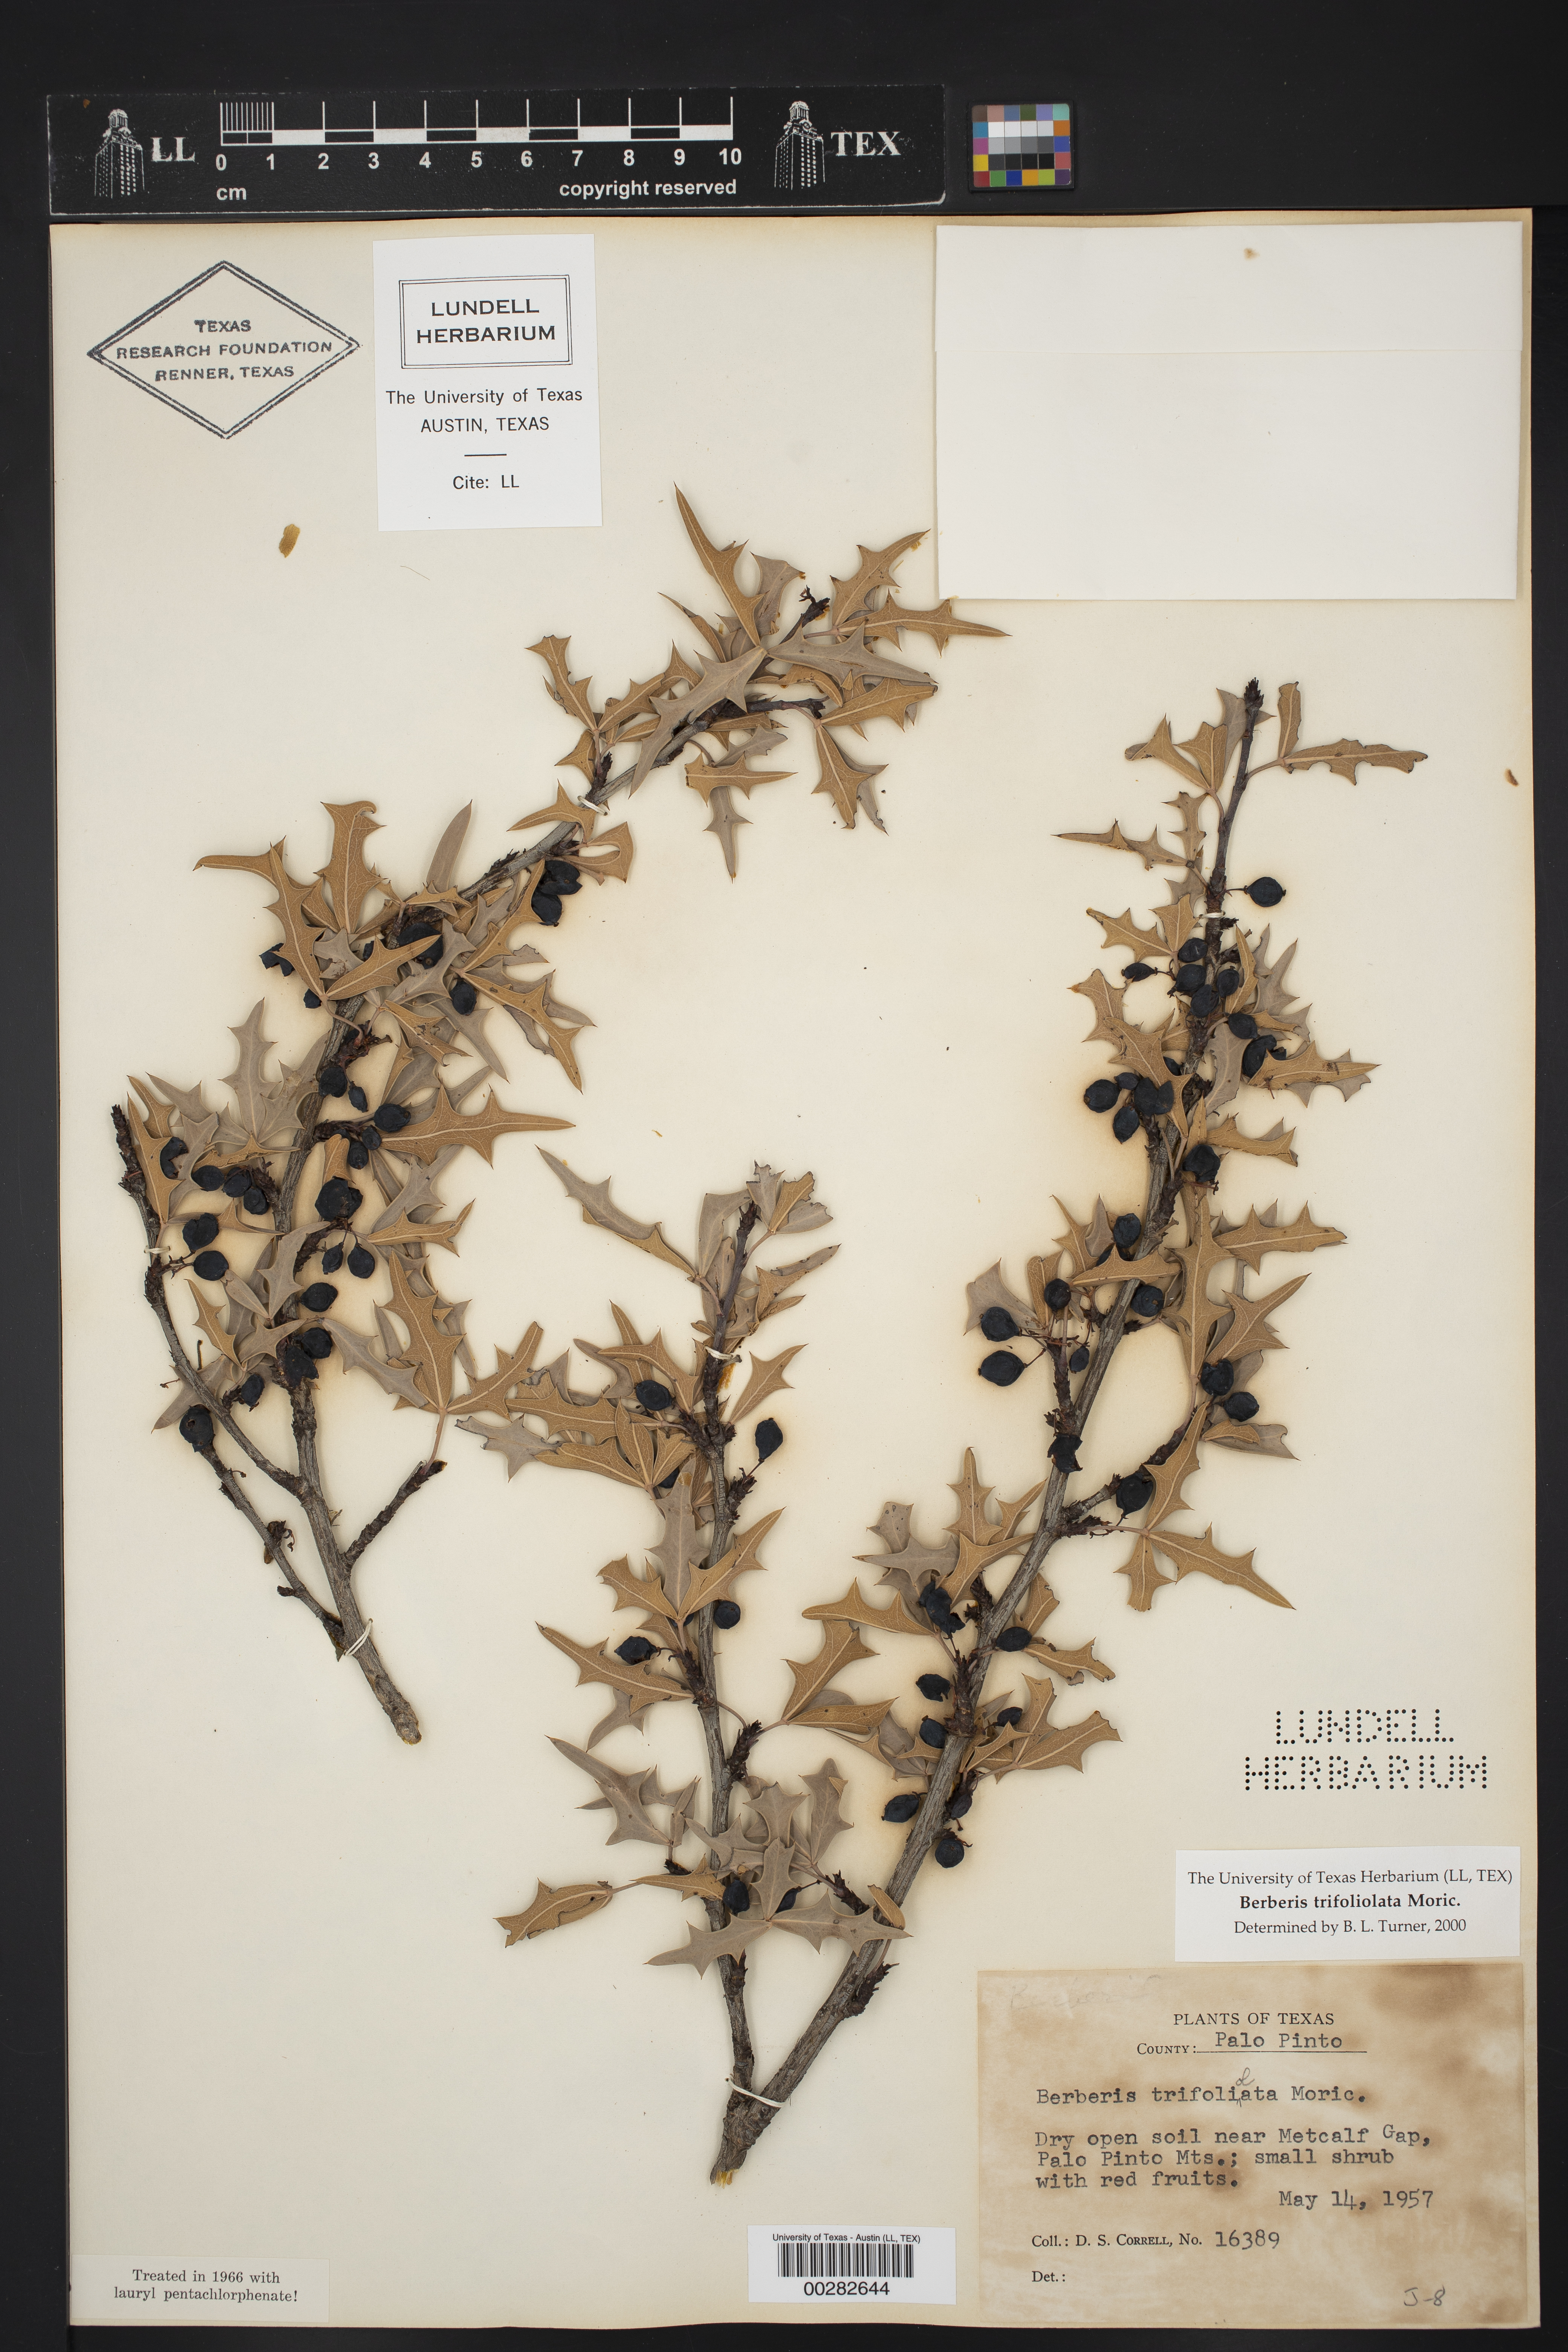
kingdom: Plantae
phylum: Tracheophyta
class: Magnoliopsida
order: Ranunculales
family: Berberidaceae
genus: Alloberberis
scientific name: Alloberberis trifoliolata
